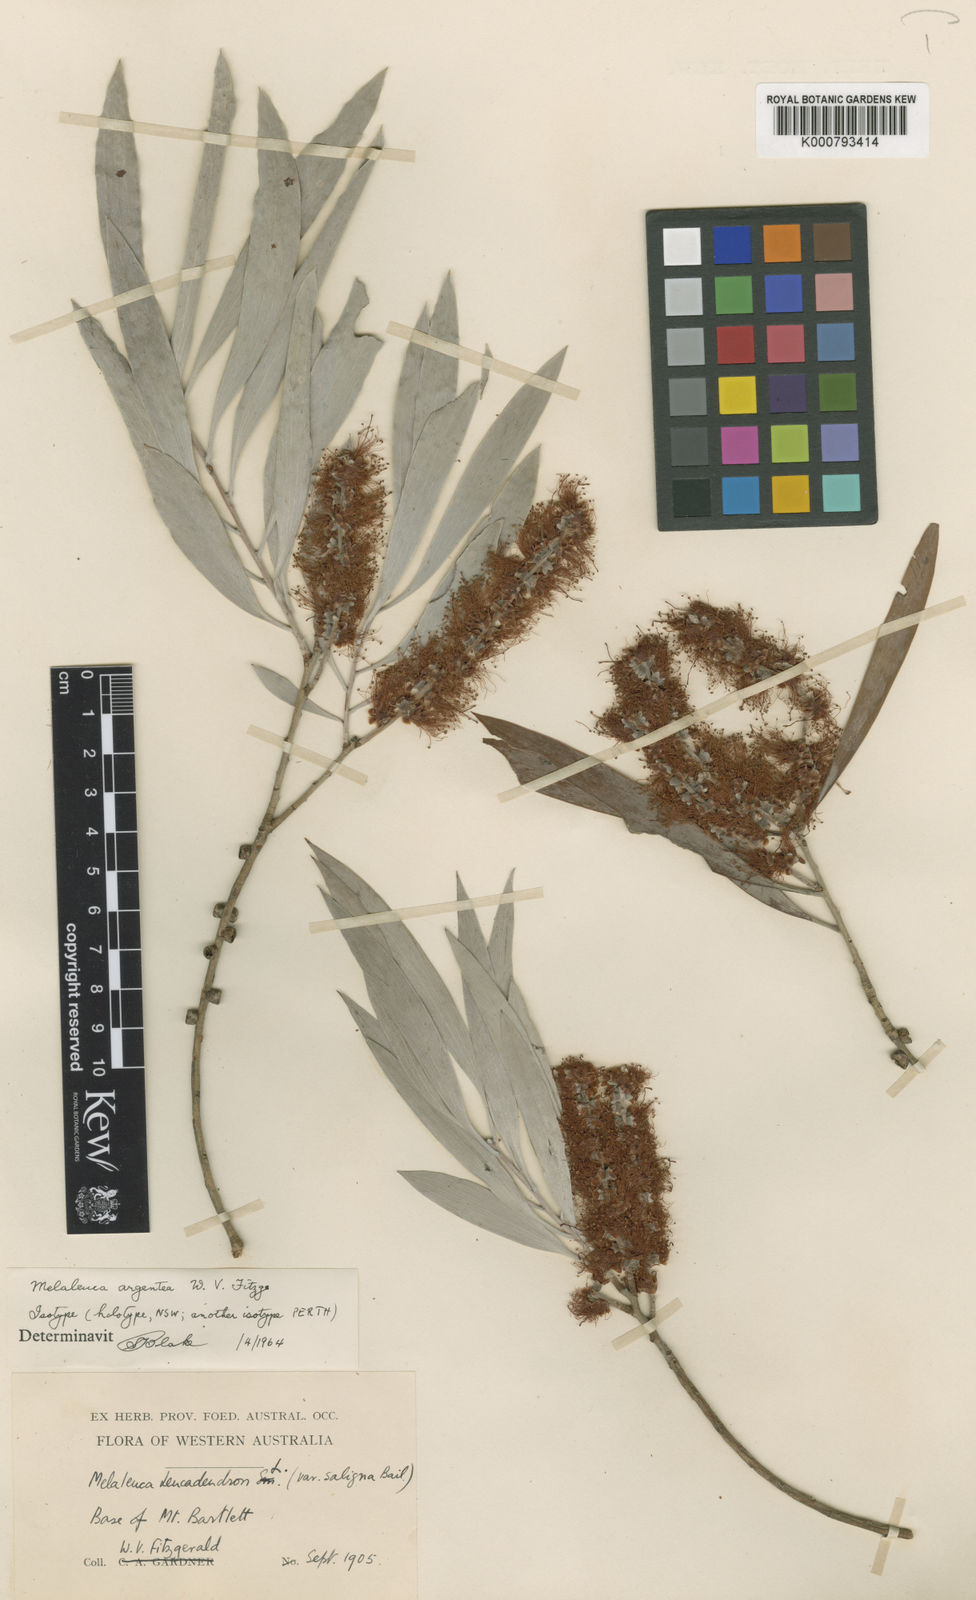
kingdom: Plantae
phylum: Tracheophyta
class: Magnoliopsida
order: Myrtales
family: Myrtaceae
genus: Melaleuca
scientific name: Melaleuca argentea
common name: Silver cadjeput
